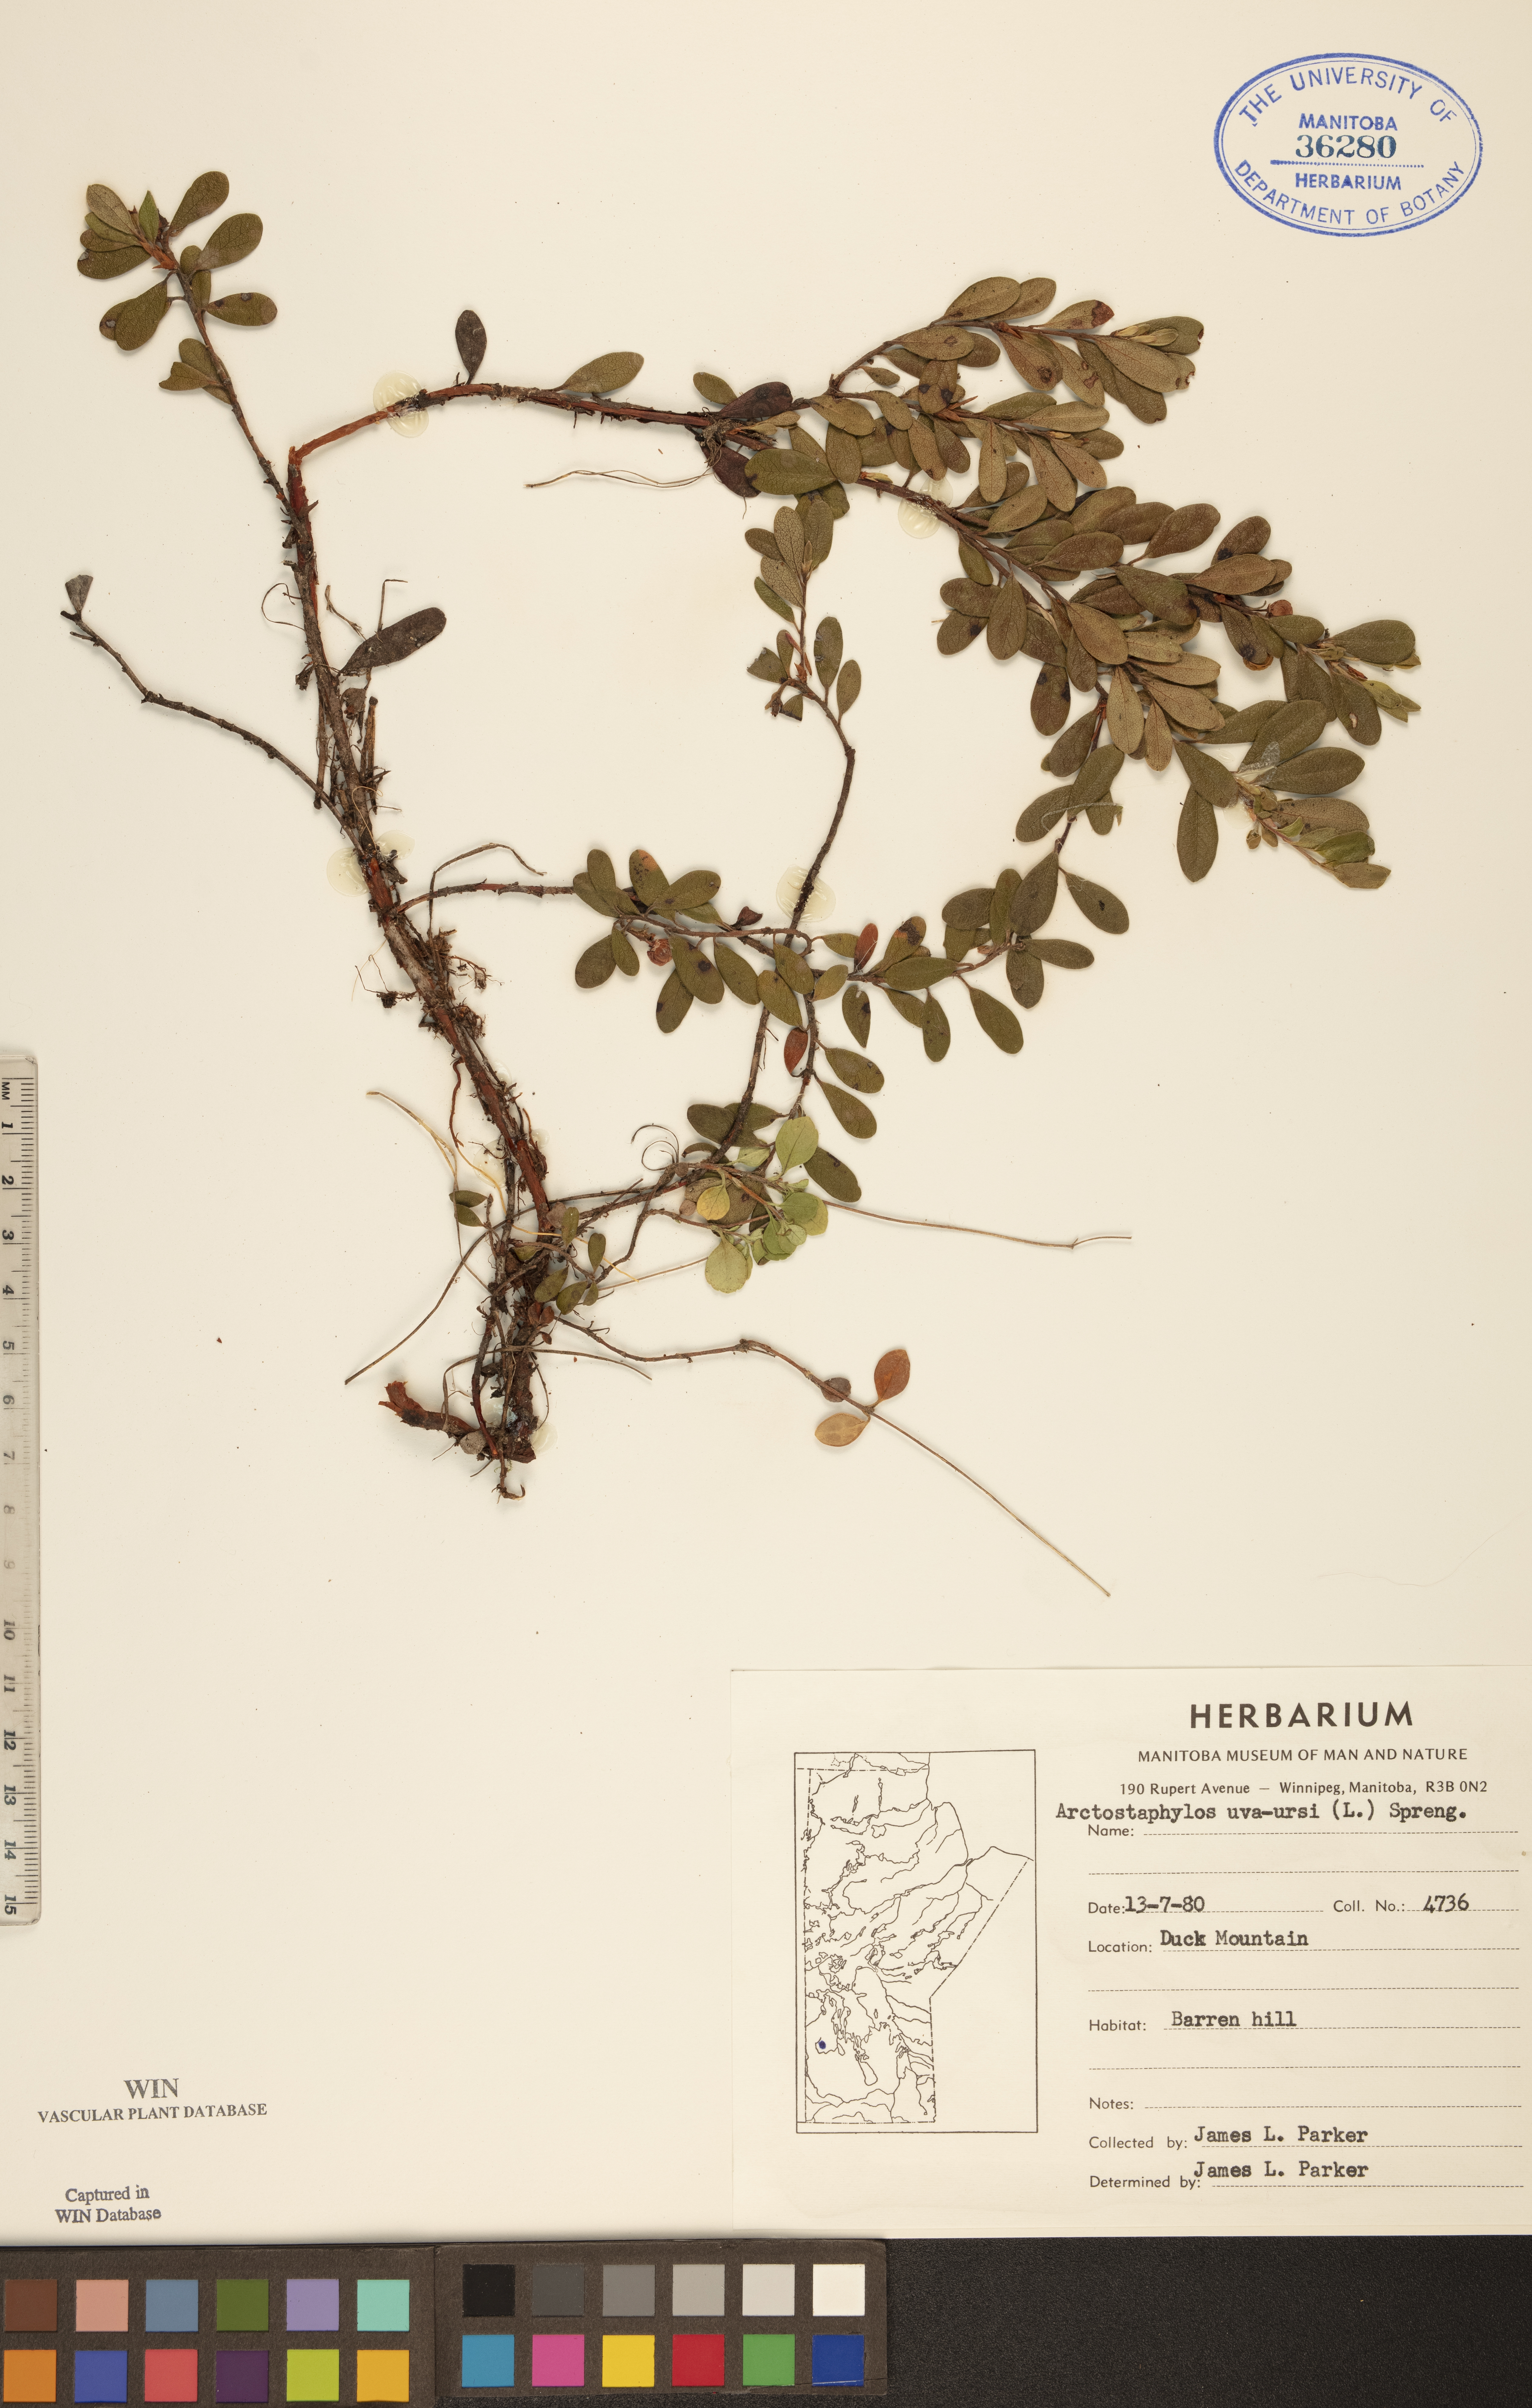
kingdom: Plantae
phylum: Tracheophyta
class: Magnoliopsida
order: Ericales
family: Ericaceae
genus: Arctostaphylos
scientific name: Arctostaphylos uva-ursi
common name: Bearberry
